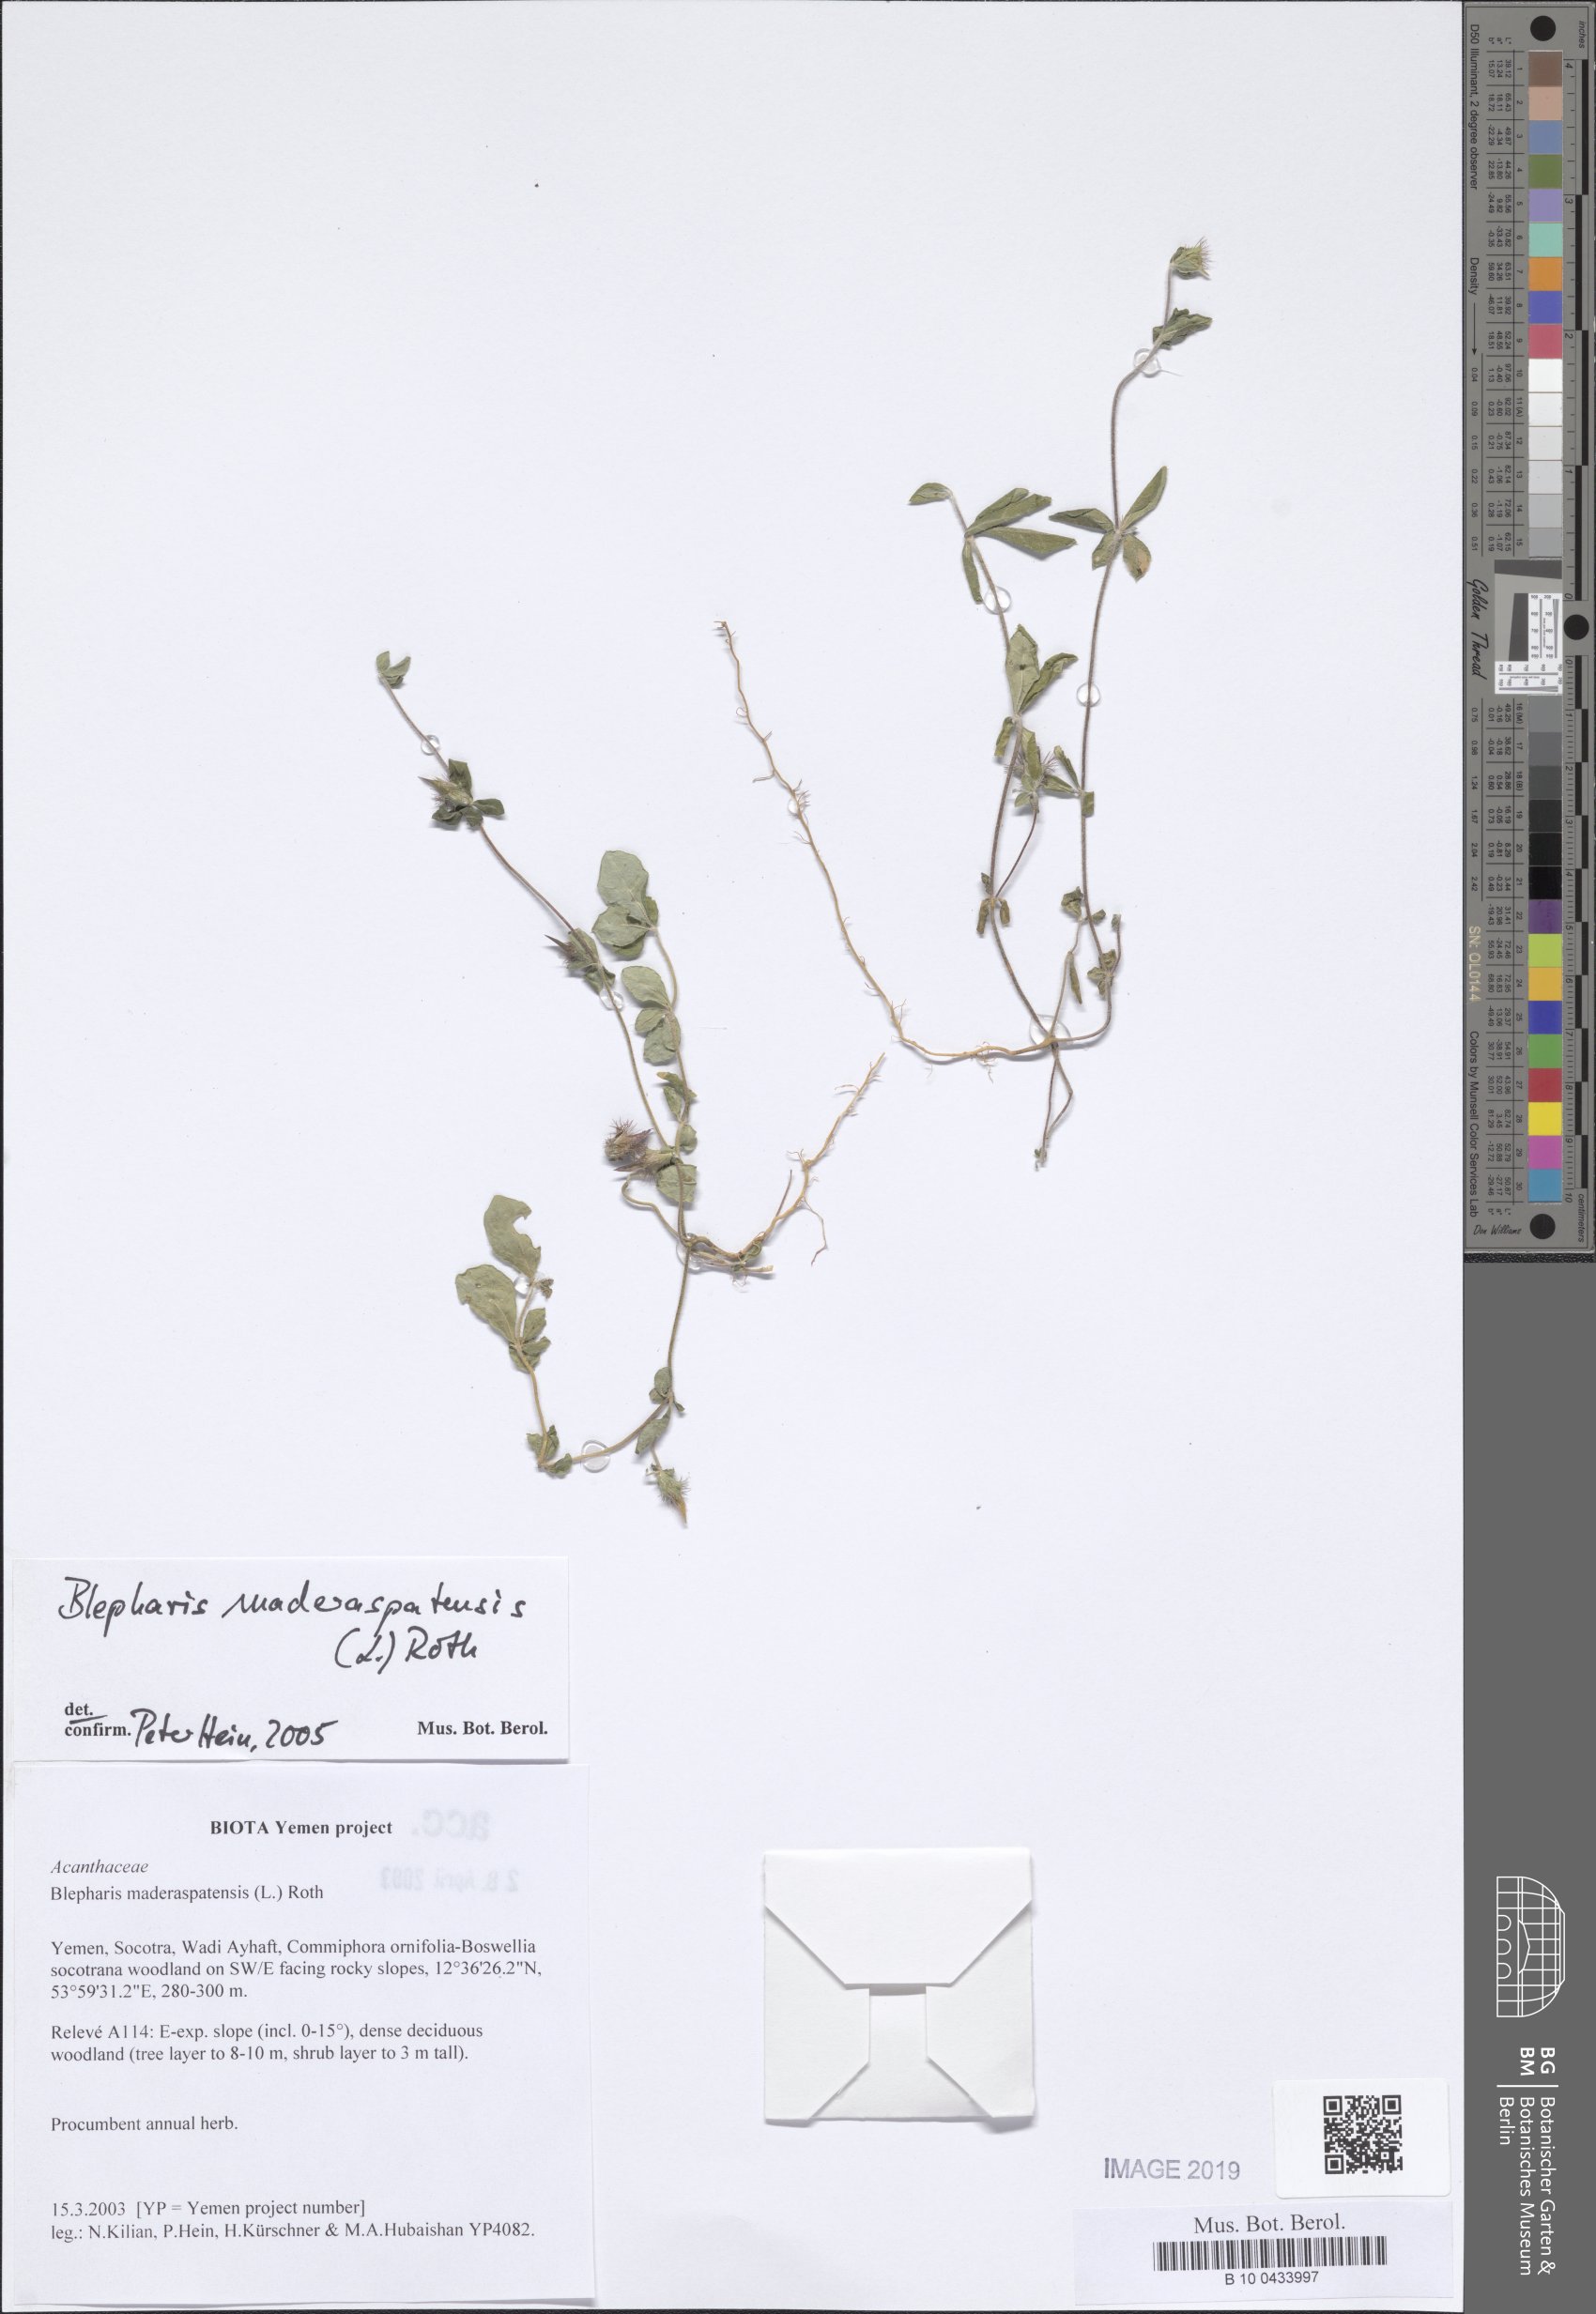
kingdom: Plantae
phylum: Tracheophyta
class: Magnoliopsida
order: Lamiales
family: Acanthaceae
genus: Blepharis
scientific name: Blepharis maderaspatensis
